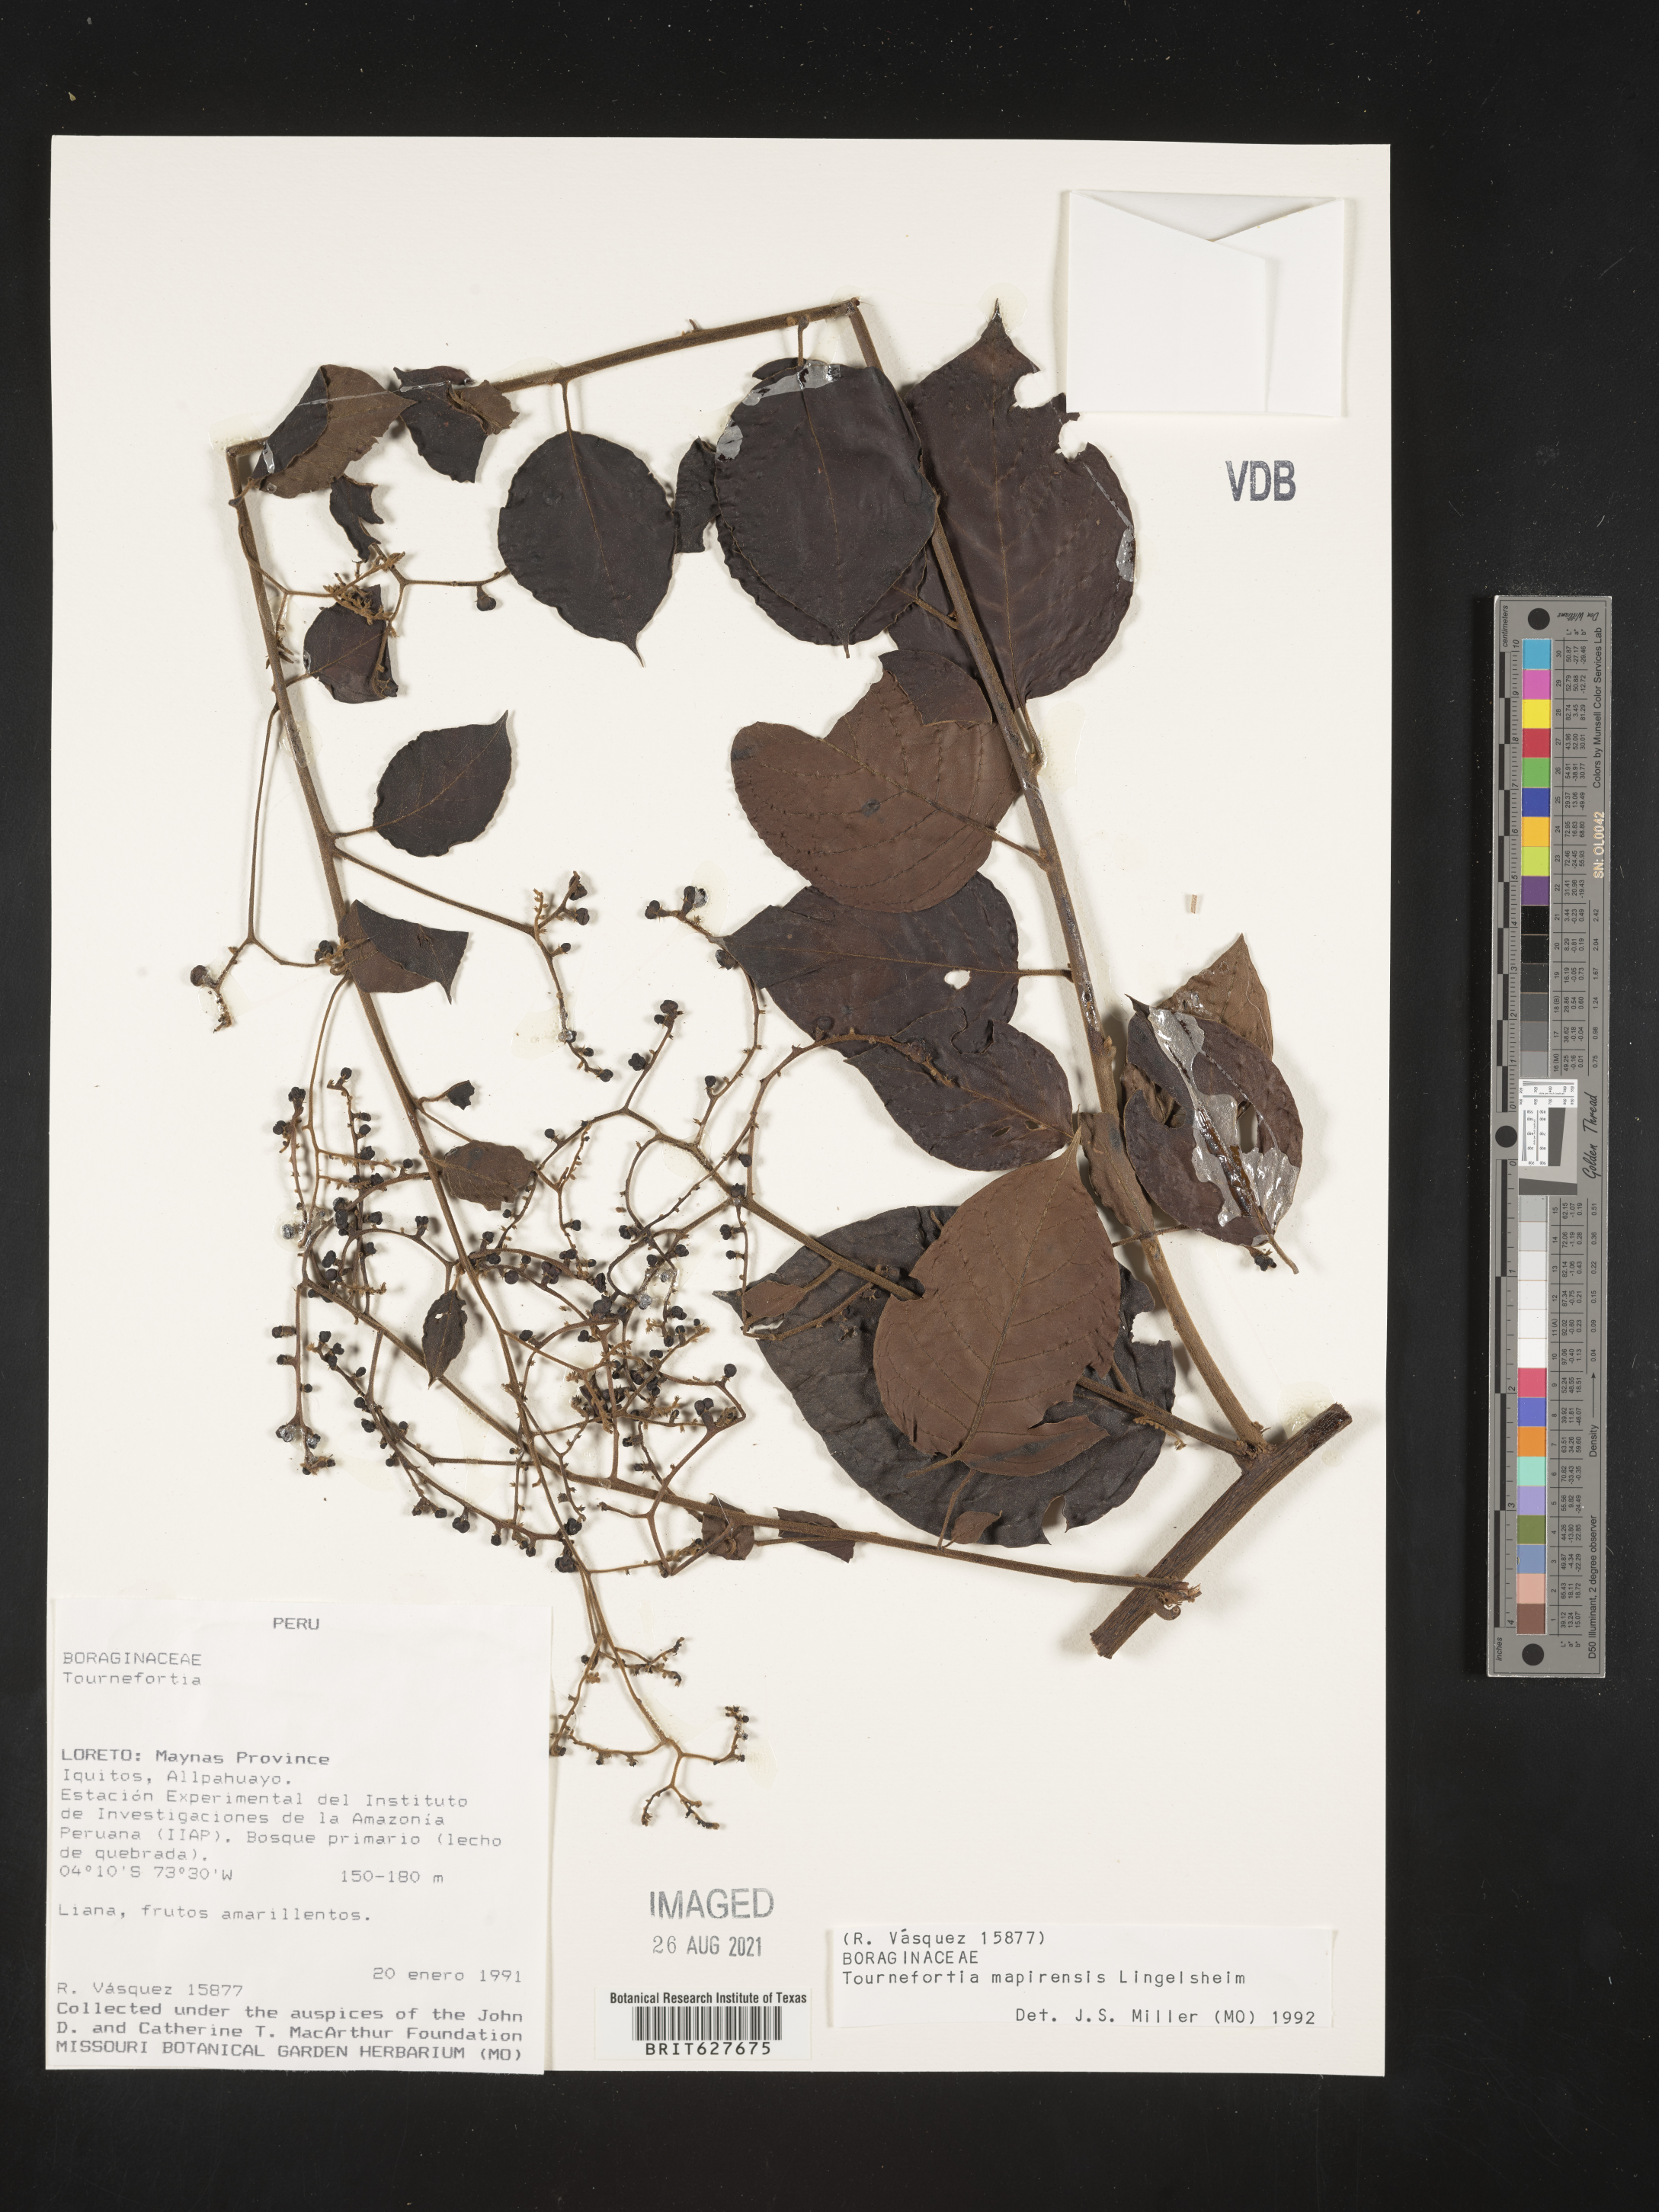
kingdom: Plantae
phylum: Tracheophyta
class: Magnoliopsida
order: Boraginales
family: Heliotropiaceae
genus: Myriopus
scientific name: Myriopus mapirensis
